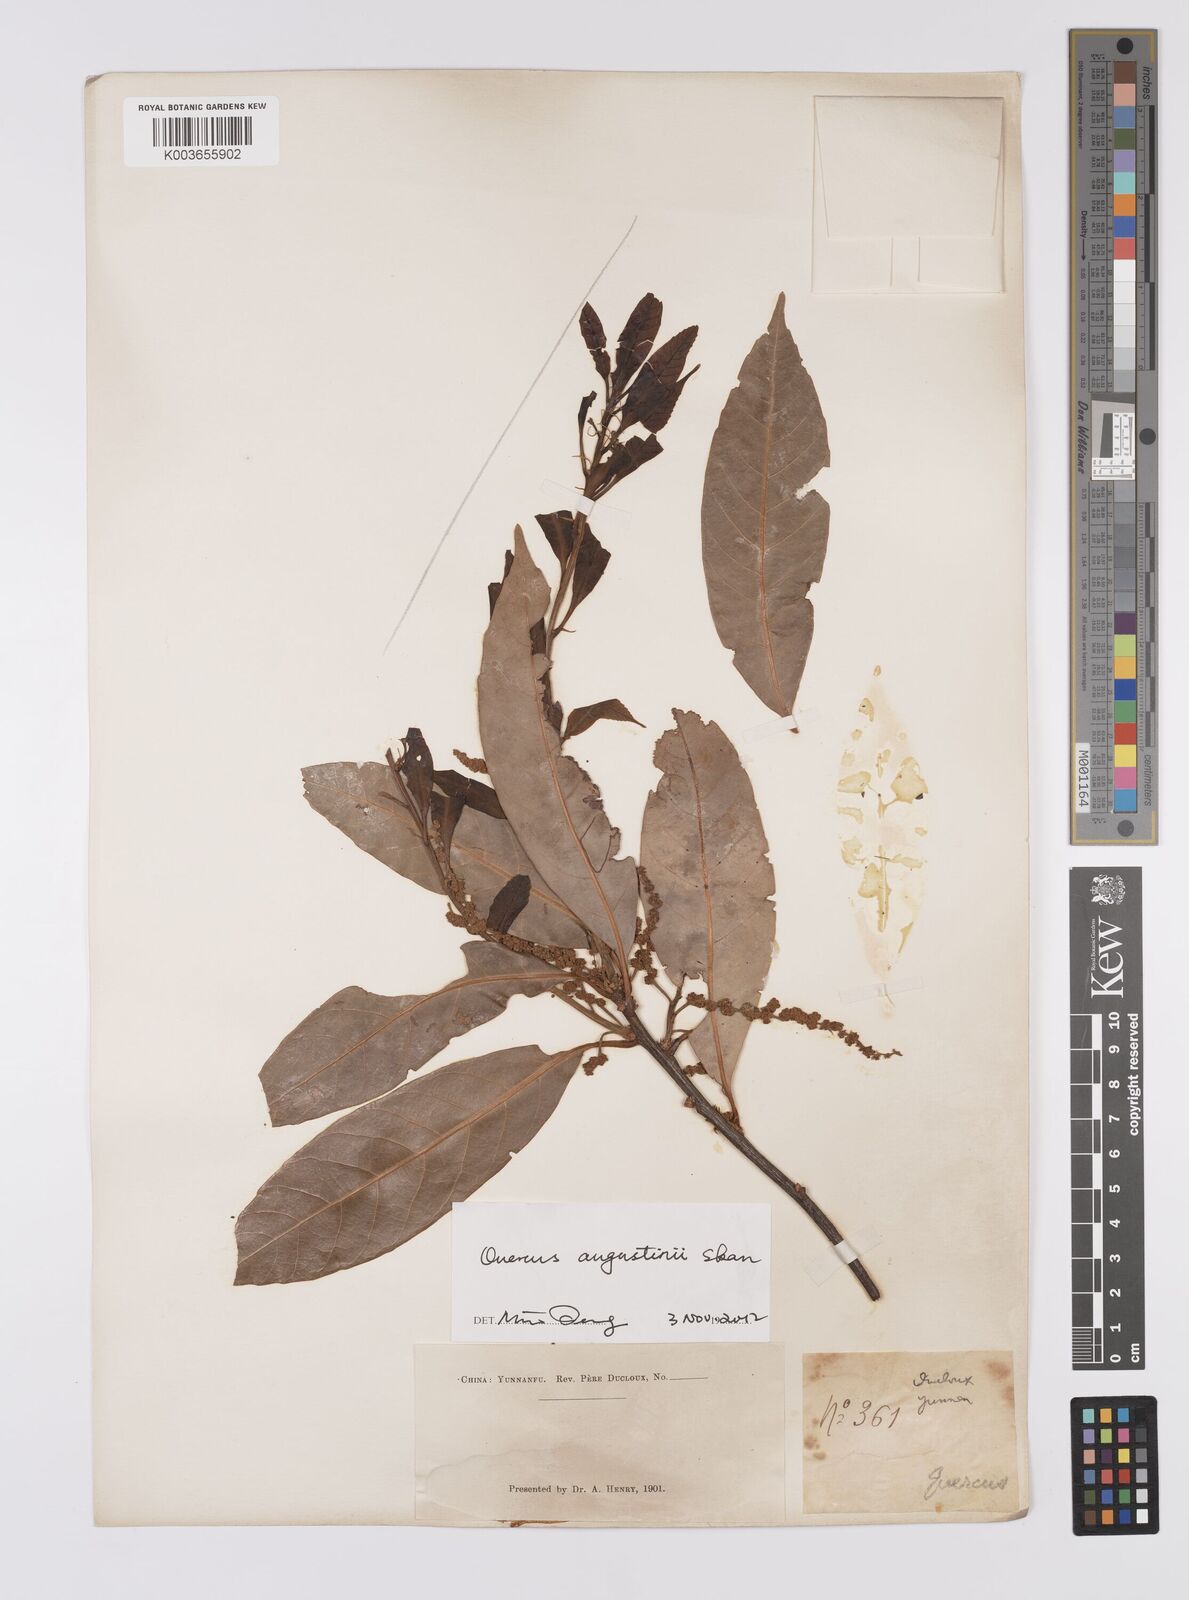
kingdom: Plantae
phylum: Tracheophyta
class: Magnoliopsida
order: Fagales
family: Fagaceae
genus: Quercus
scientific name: Quercus augustini
